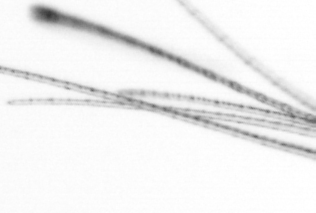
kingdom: Chromista
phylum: Ochrophyta
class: Bacillariophyceae
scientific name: Bacillariophyceae
